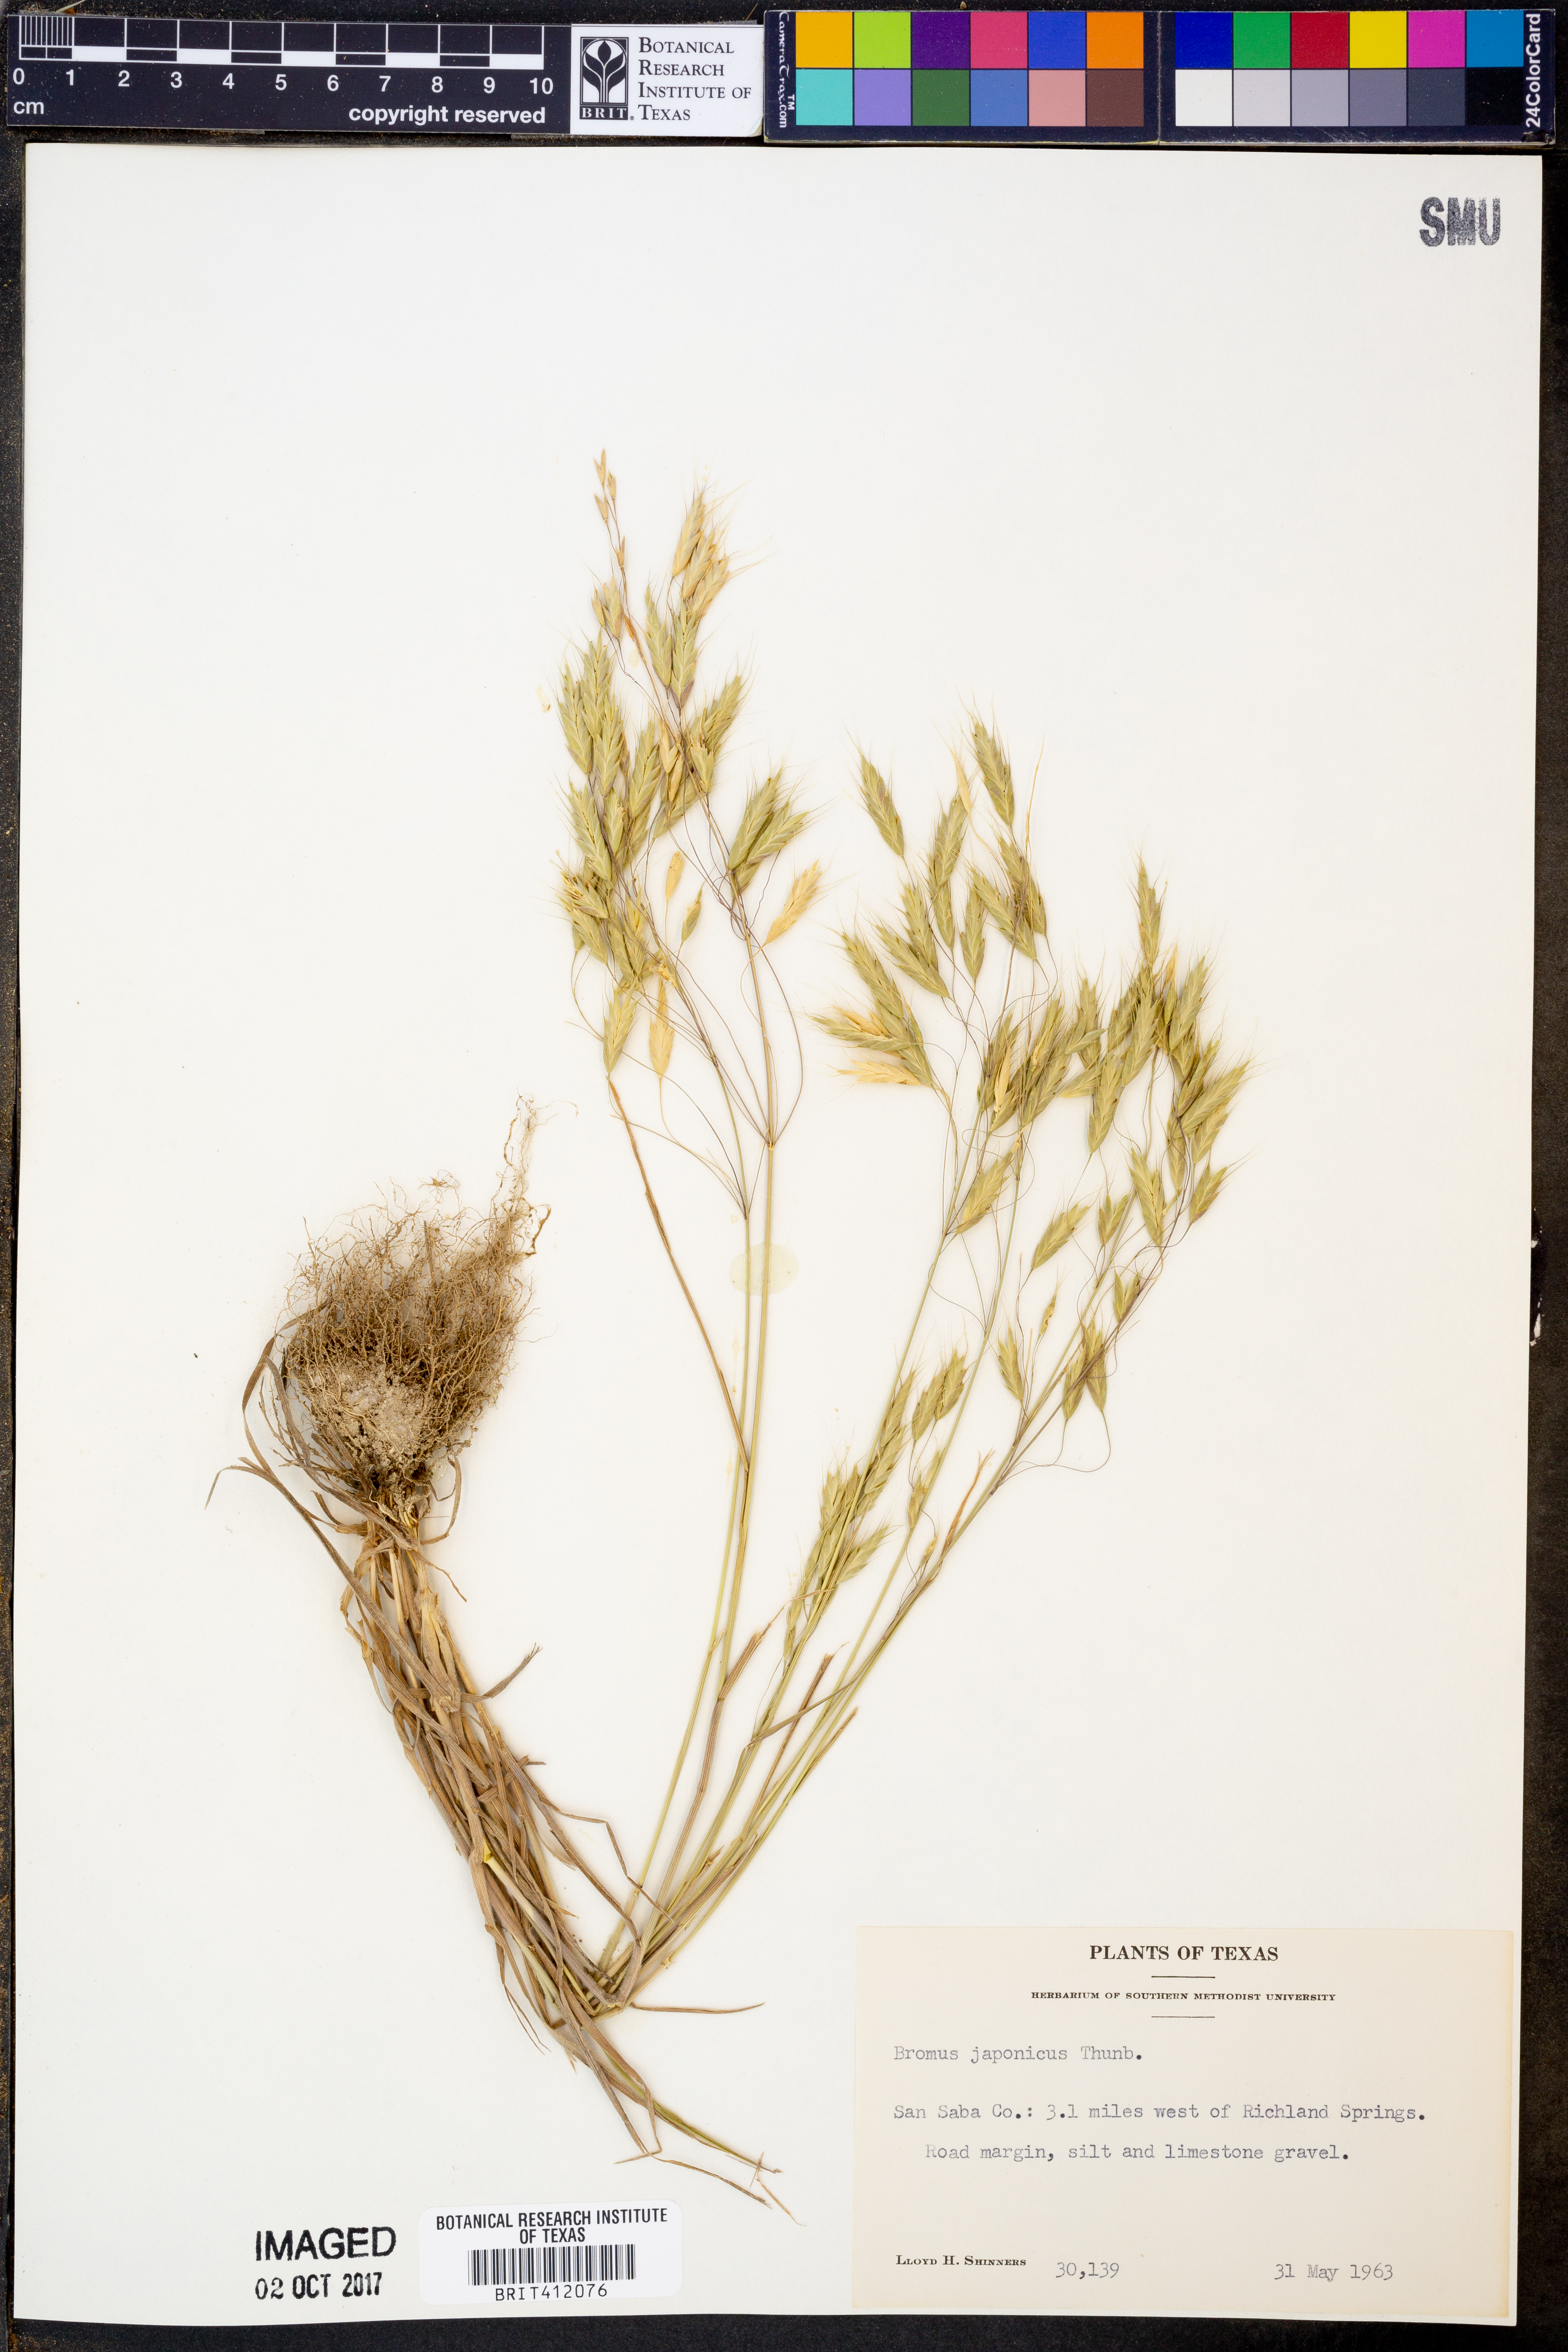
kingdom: Plantae
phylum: Tracheophyta
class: Liliopsida
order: Poales
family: Poaceae
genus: Bromus
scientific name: Bromus japonicus
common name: Japanese brome
